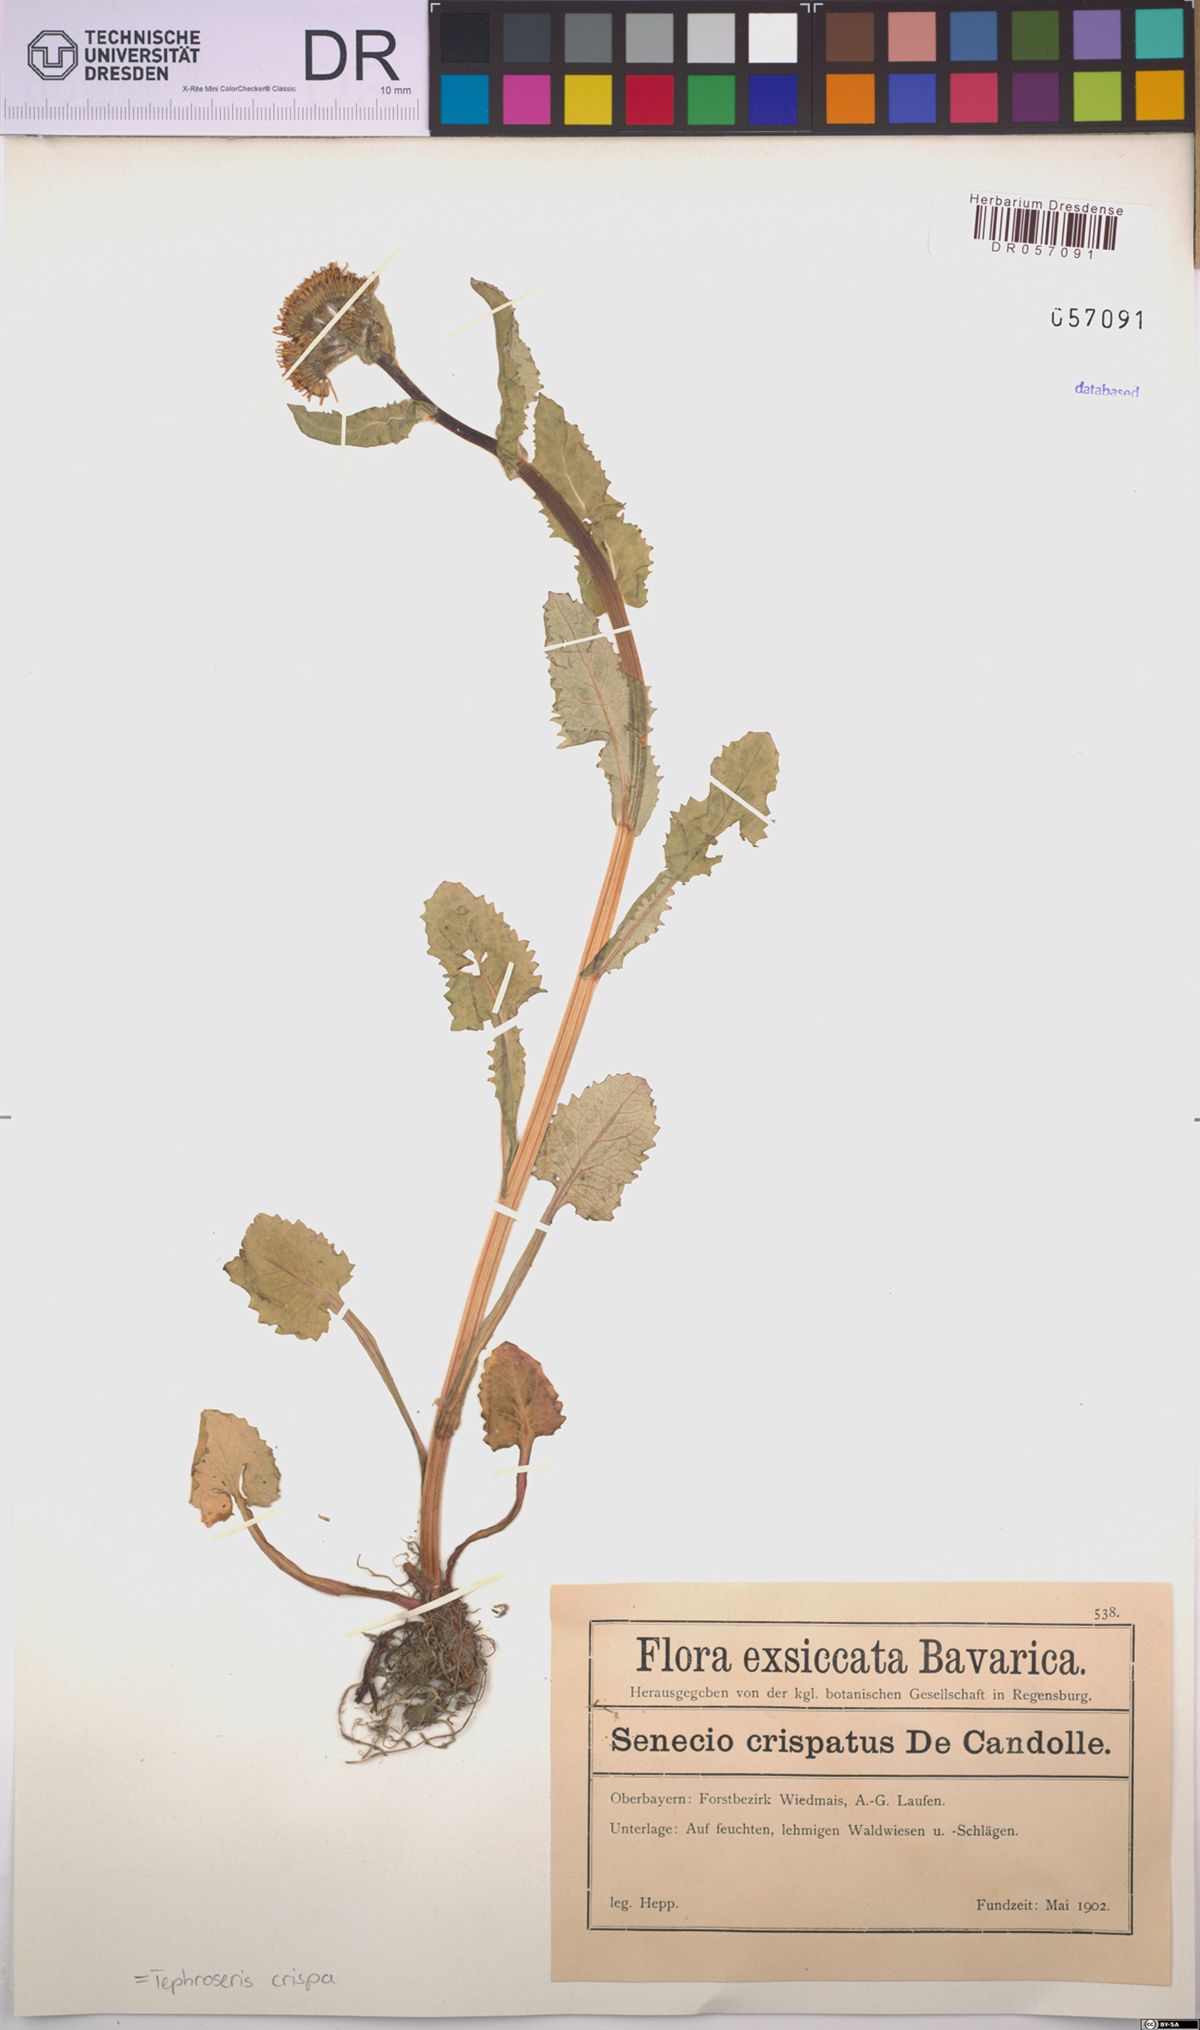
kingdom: Plantae
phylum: Tracheophyta
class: Magnoliopsida
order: Asterales
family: Asteraceae
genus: Tephroseris
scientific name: Tephroseris crispa
